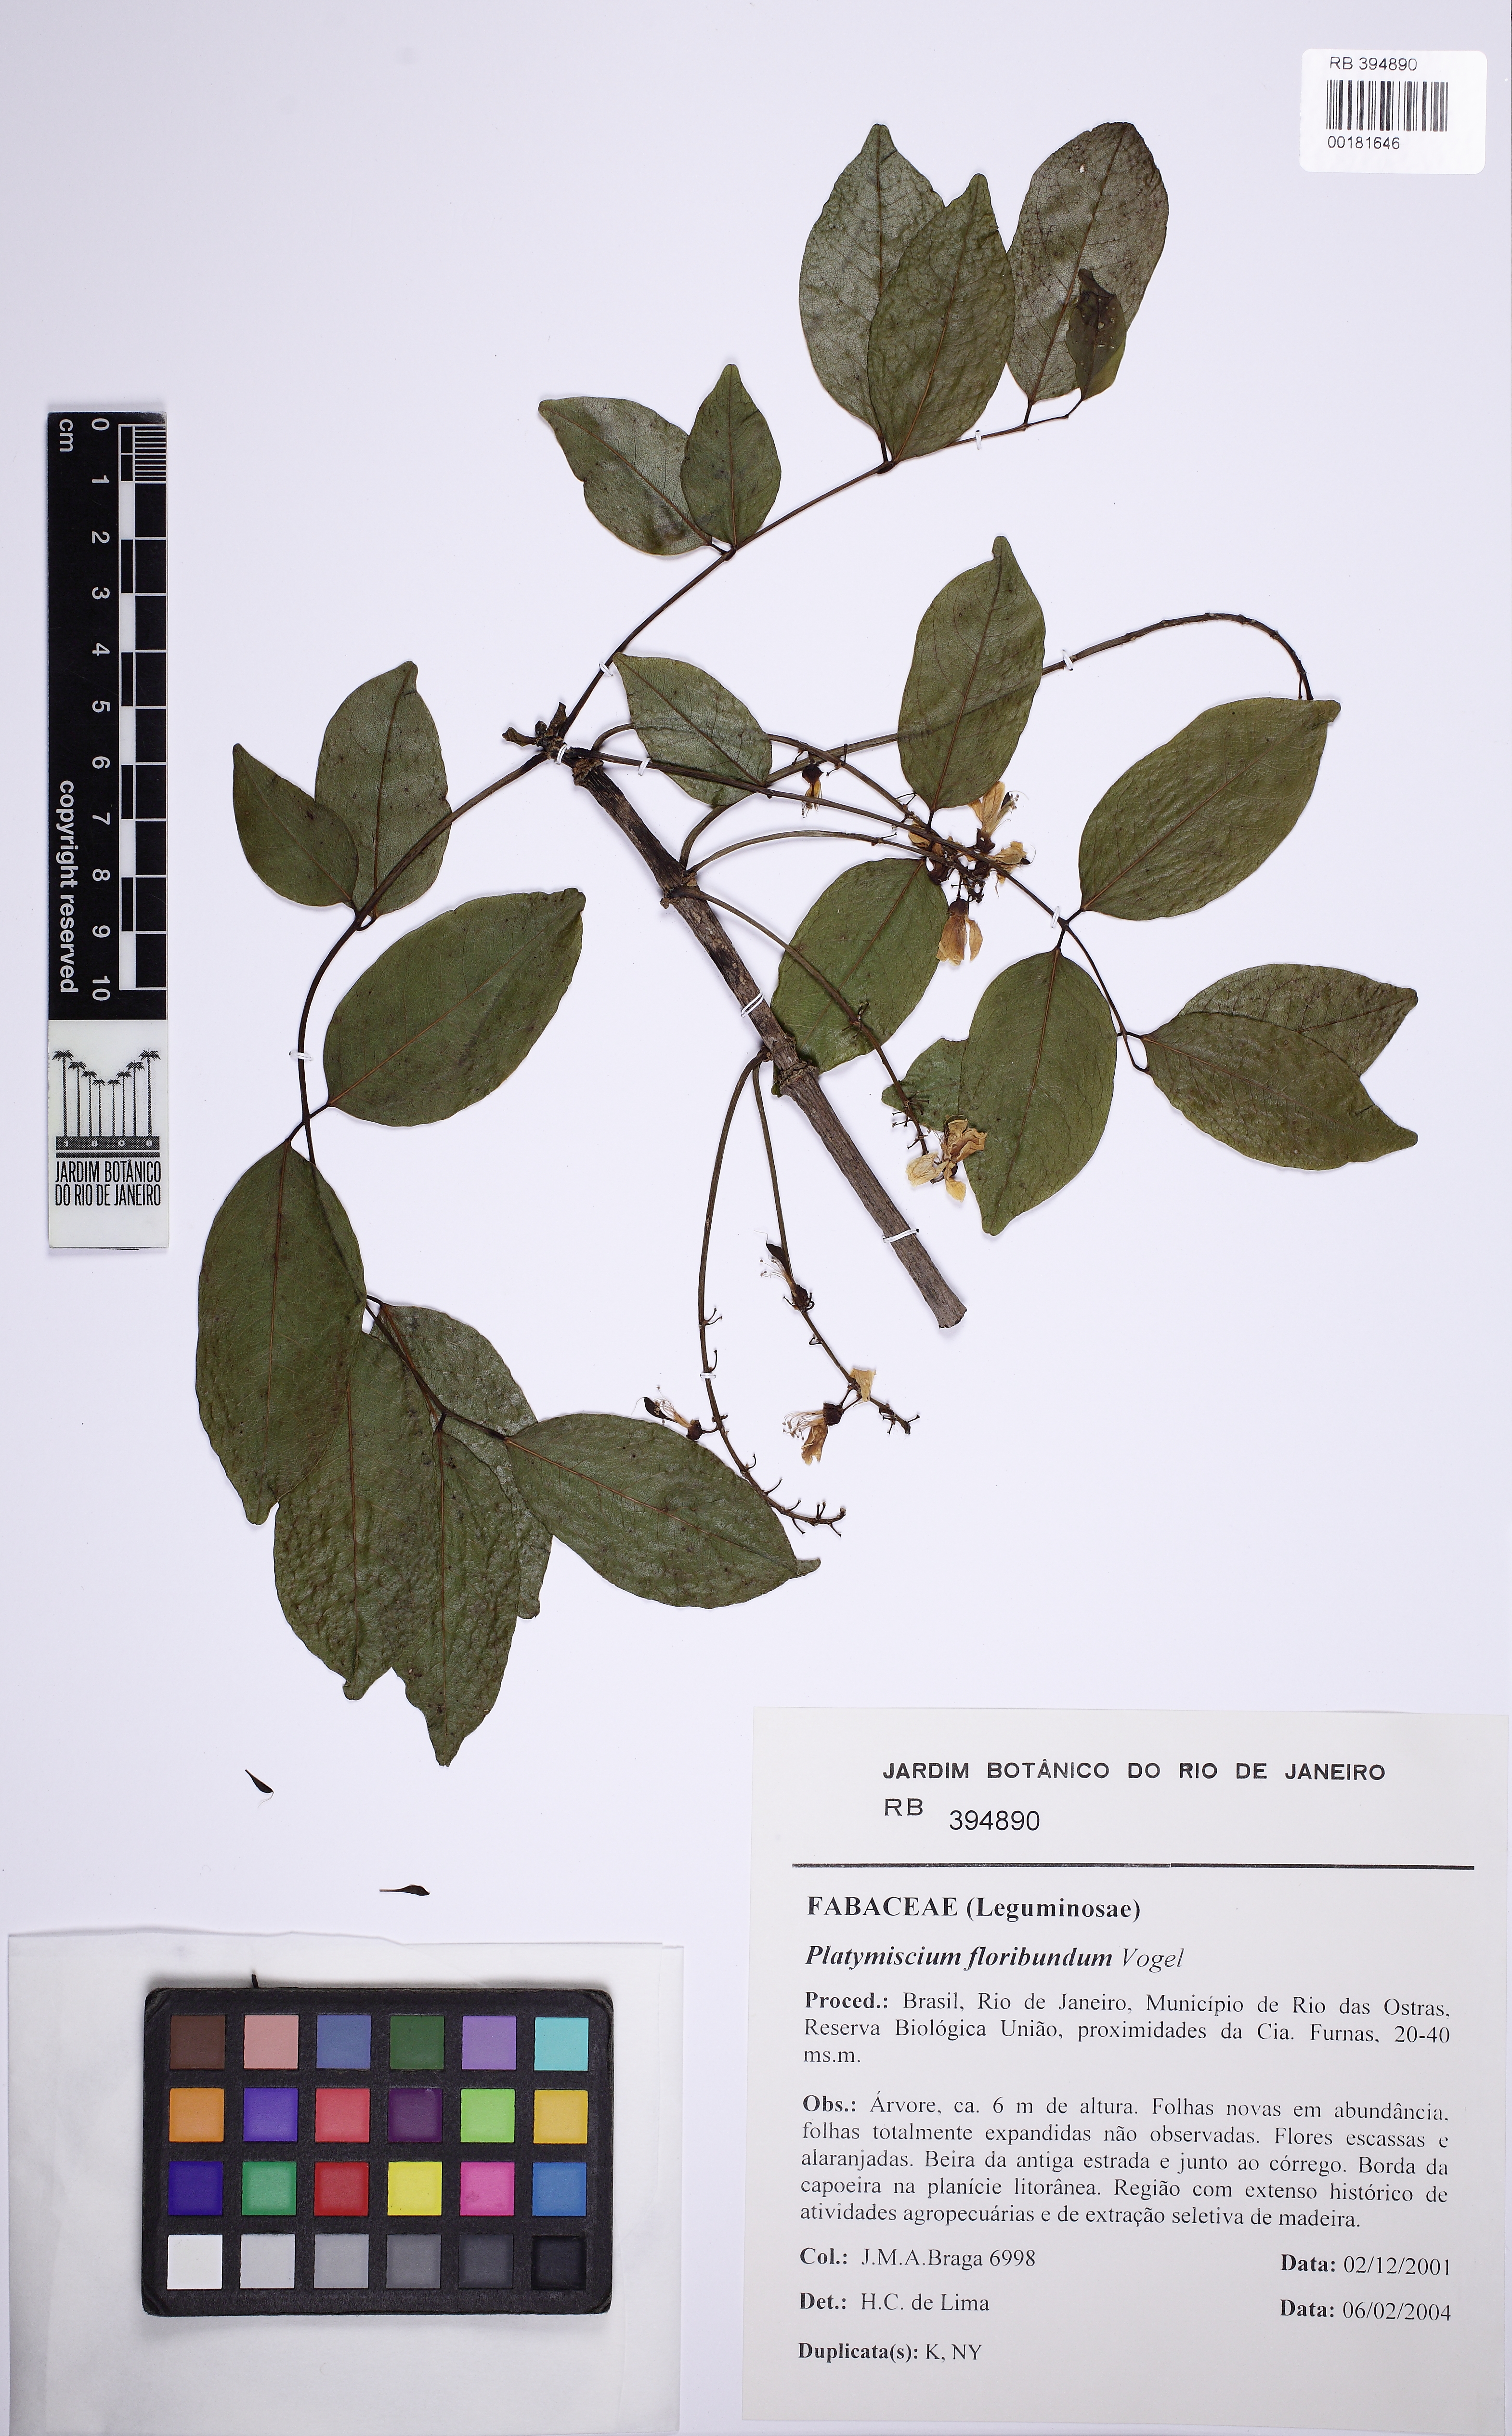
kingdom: Plantae
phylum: Tracheophyta
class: Magnoliopsida
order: Fabales
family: Fabaceae
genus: Platymiscium
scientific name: Platymiscium floribundum
